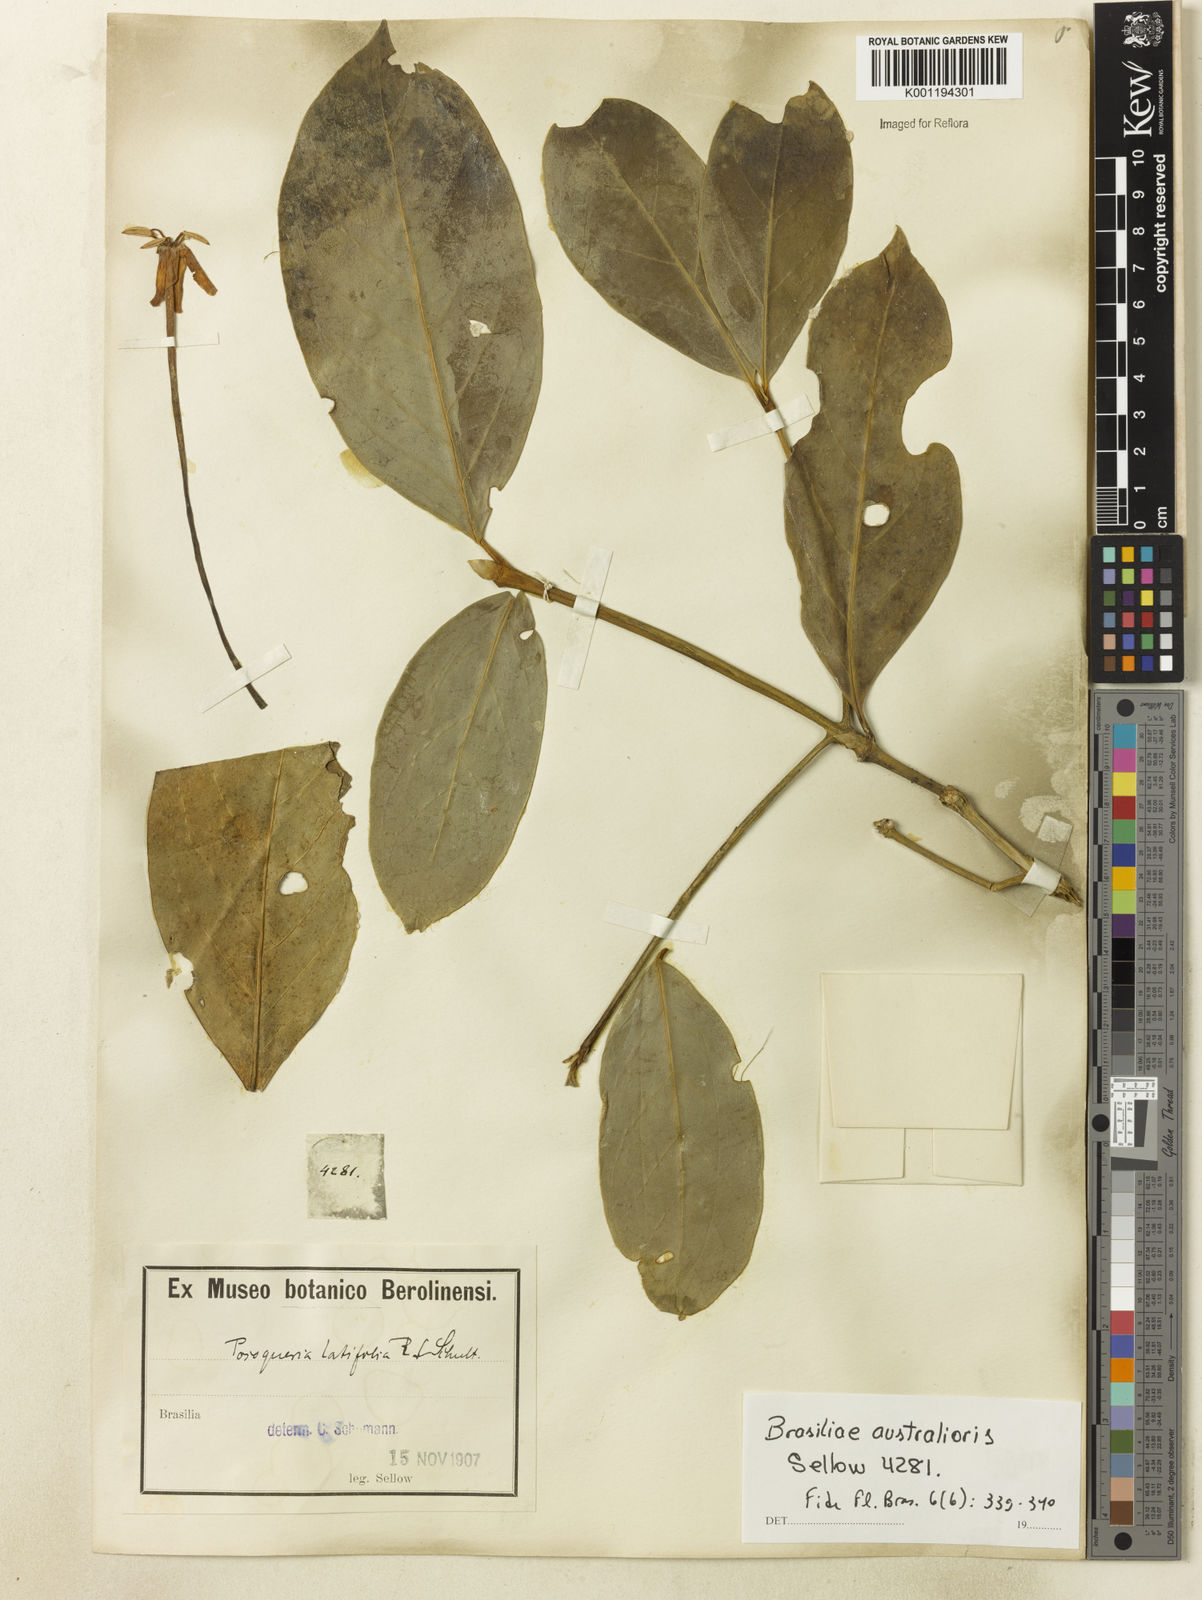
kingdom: Plantae
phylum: Tracheophyta
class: Magnoliopsida
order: Gentianales
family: Rubiaceae
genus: Posoqueria
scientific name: Posoqueria latifolia
